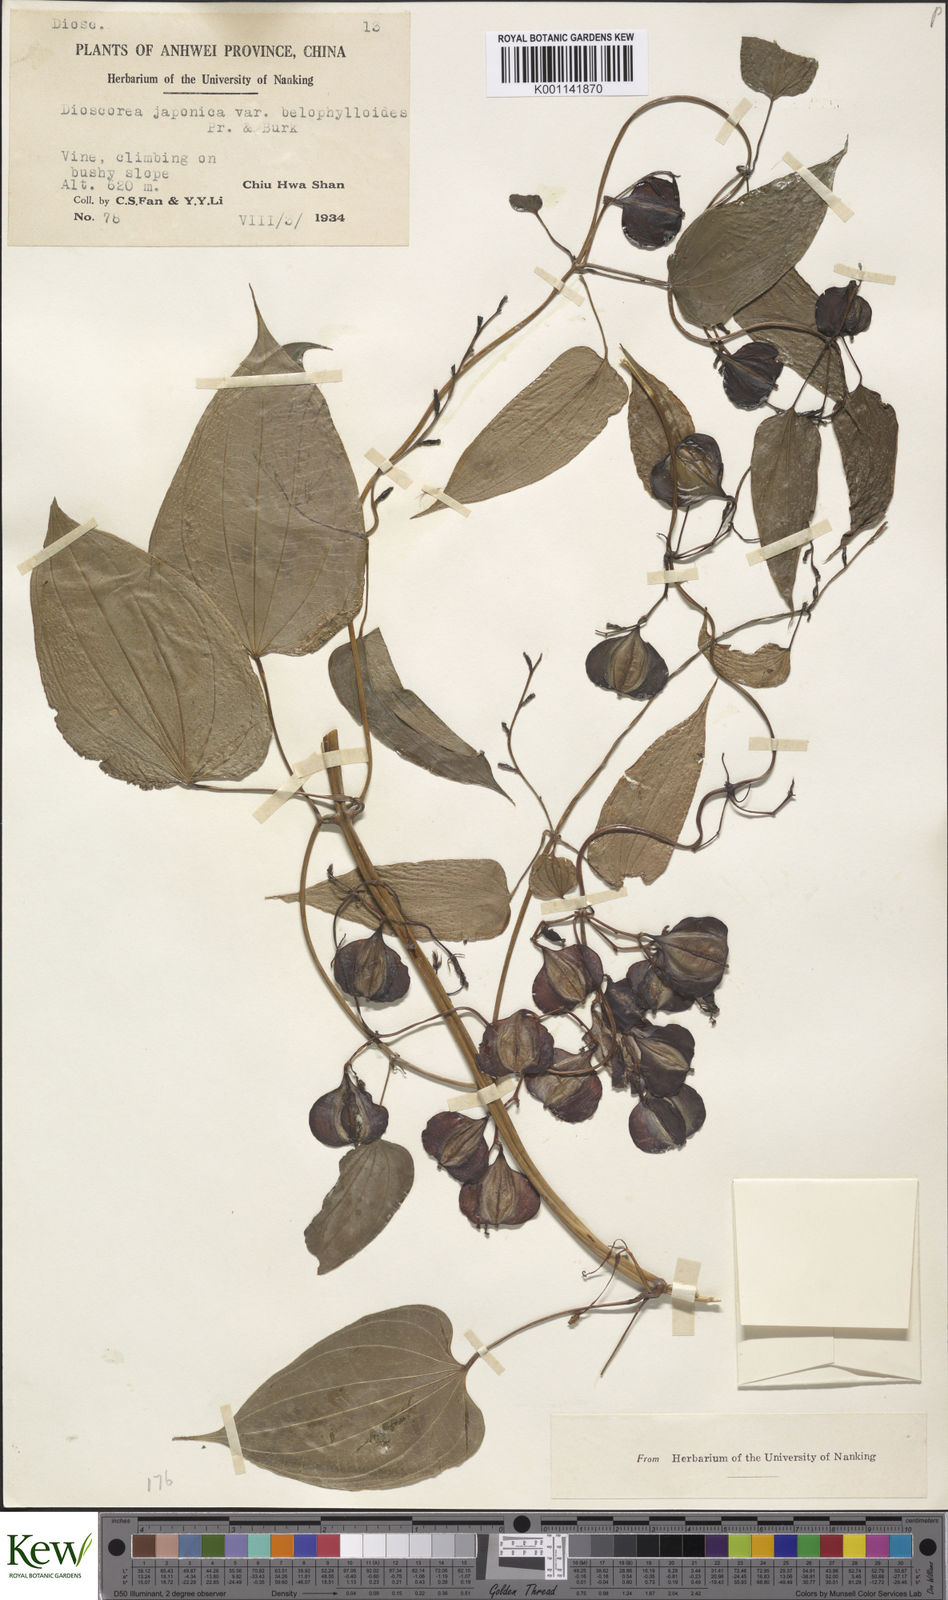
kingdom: Plantae
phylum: Tracheophyta
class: Liliopsida
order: Dioscoreales
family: Dioscoreaceae
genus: Dioscorea
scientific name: Dioscorea japonica
